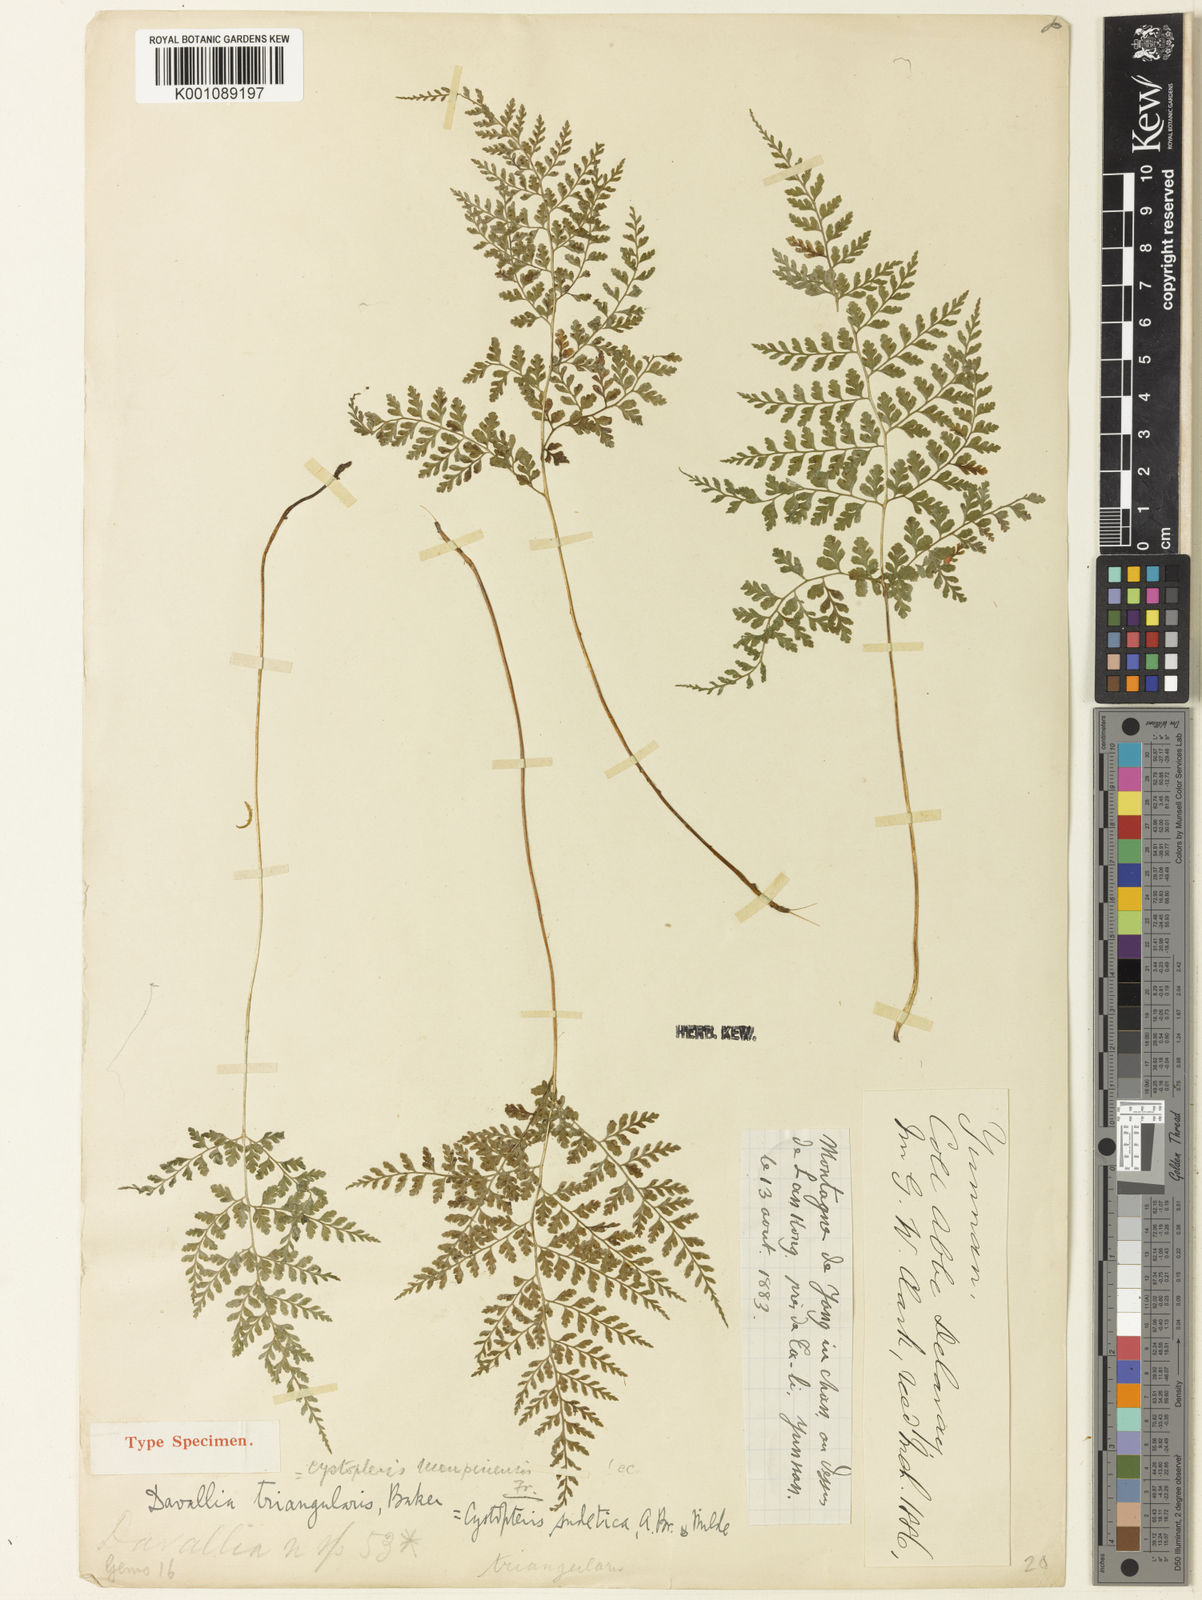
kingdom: Plantae
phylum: Tracheophyta
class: Polypodiopsida
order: Polypodiales
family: Cystopteridaceae
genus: Cystopteris
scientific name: Cystopteris moupinensis
